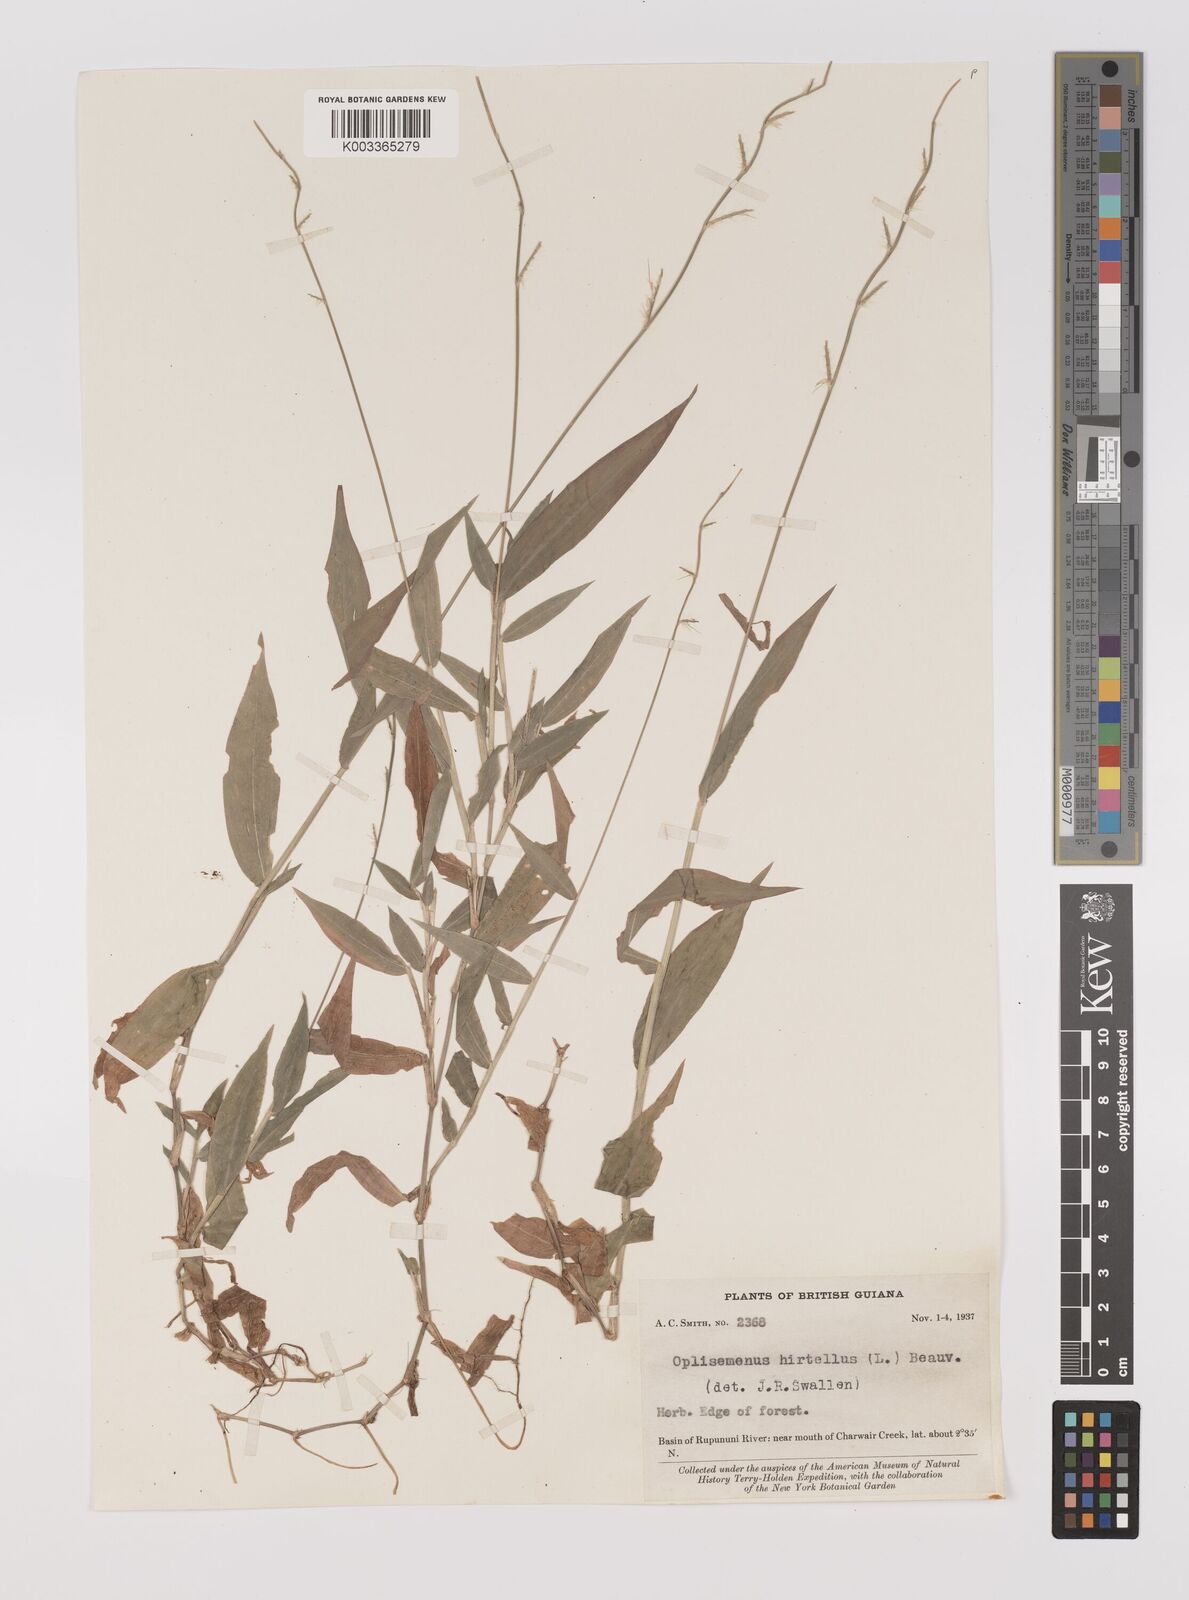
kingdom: Plantae
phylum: Tracheophyta
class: Liliopsida
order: Poales
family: Poaceae
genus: Oplismenus
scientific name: Oplismenus hirtellus
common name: Basketgrass
